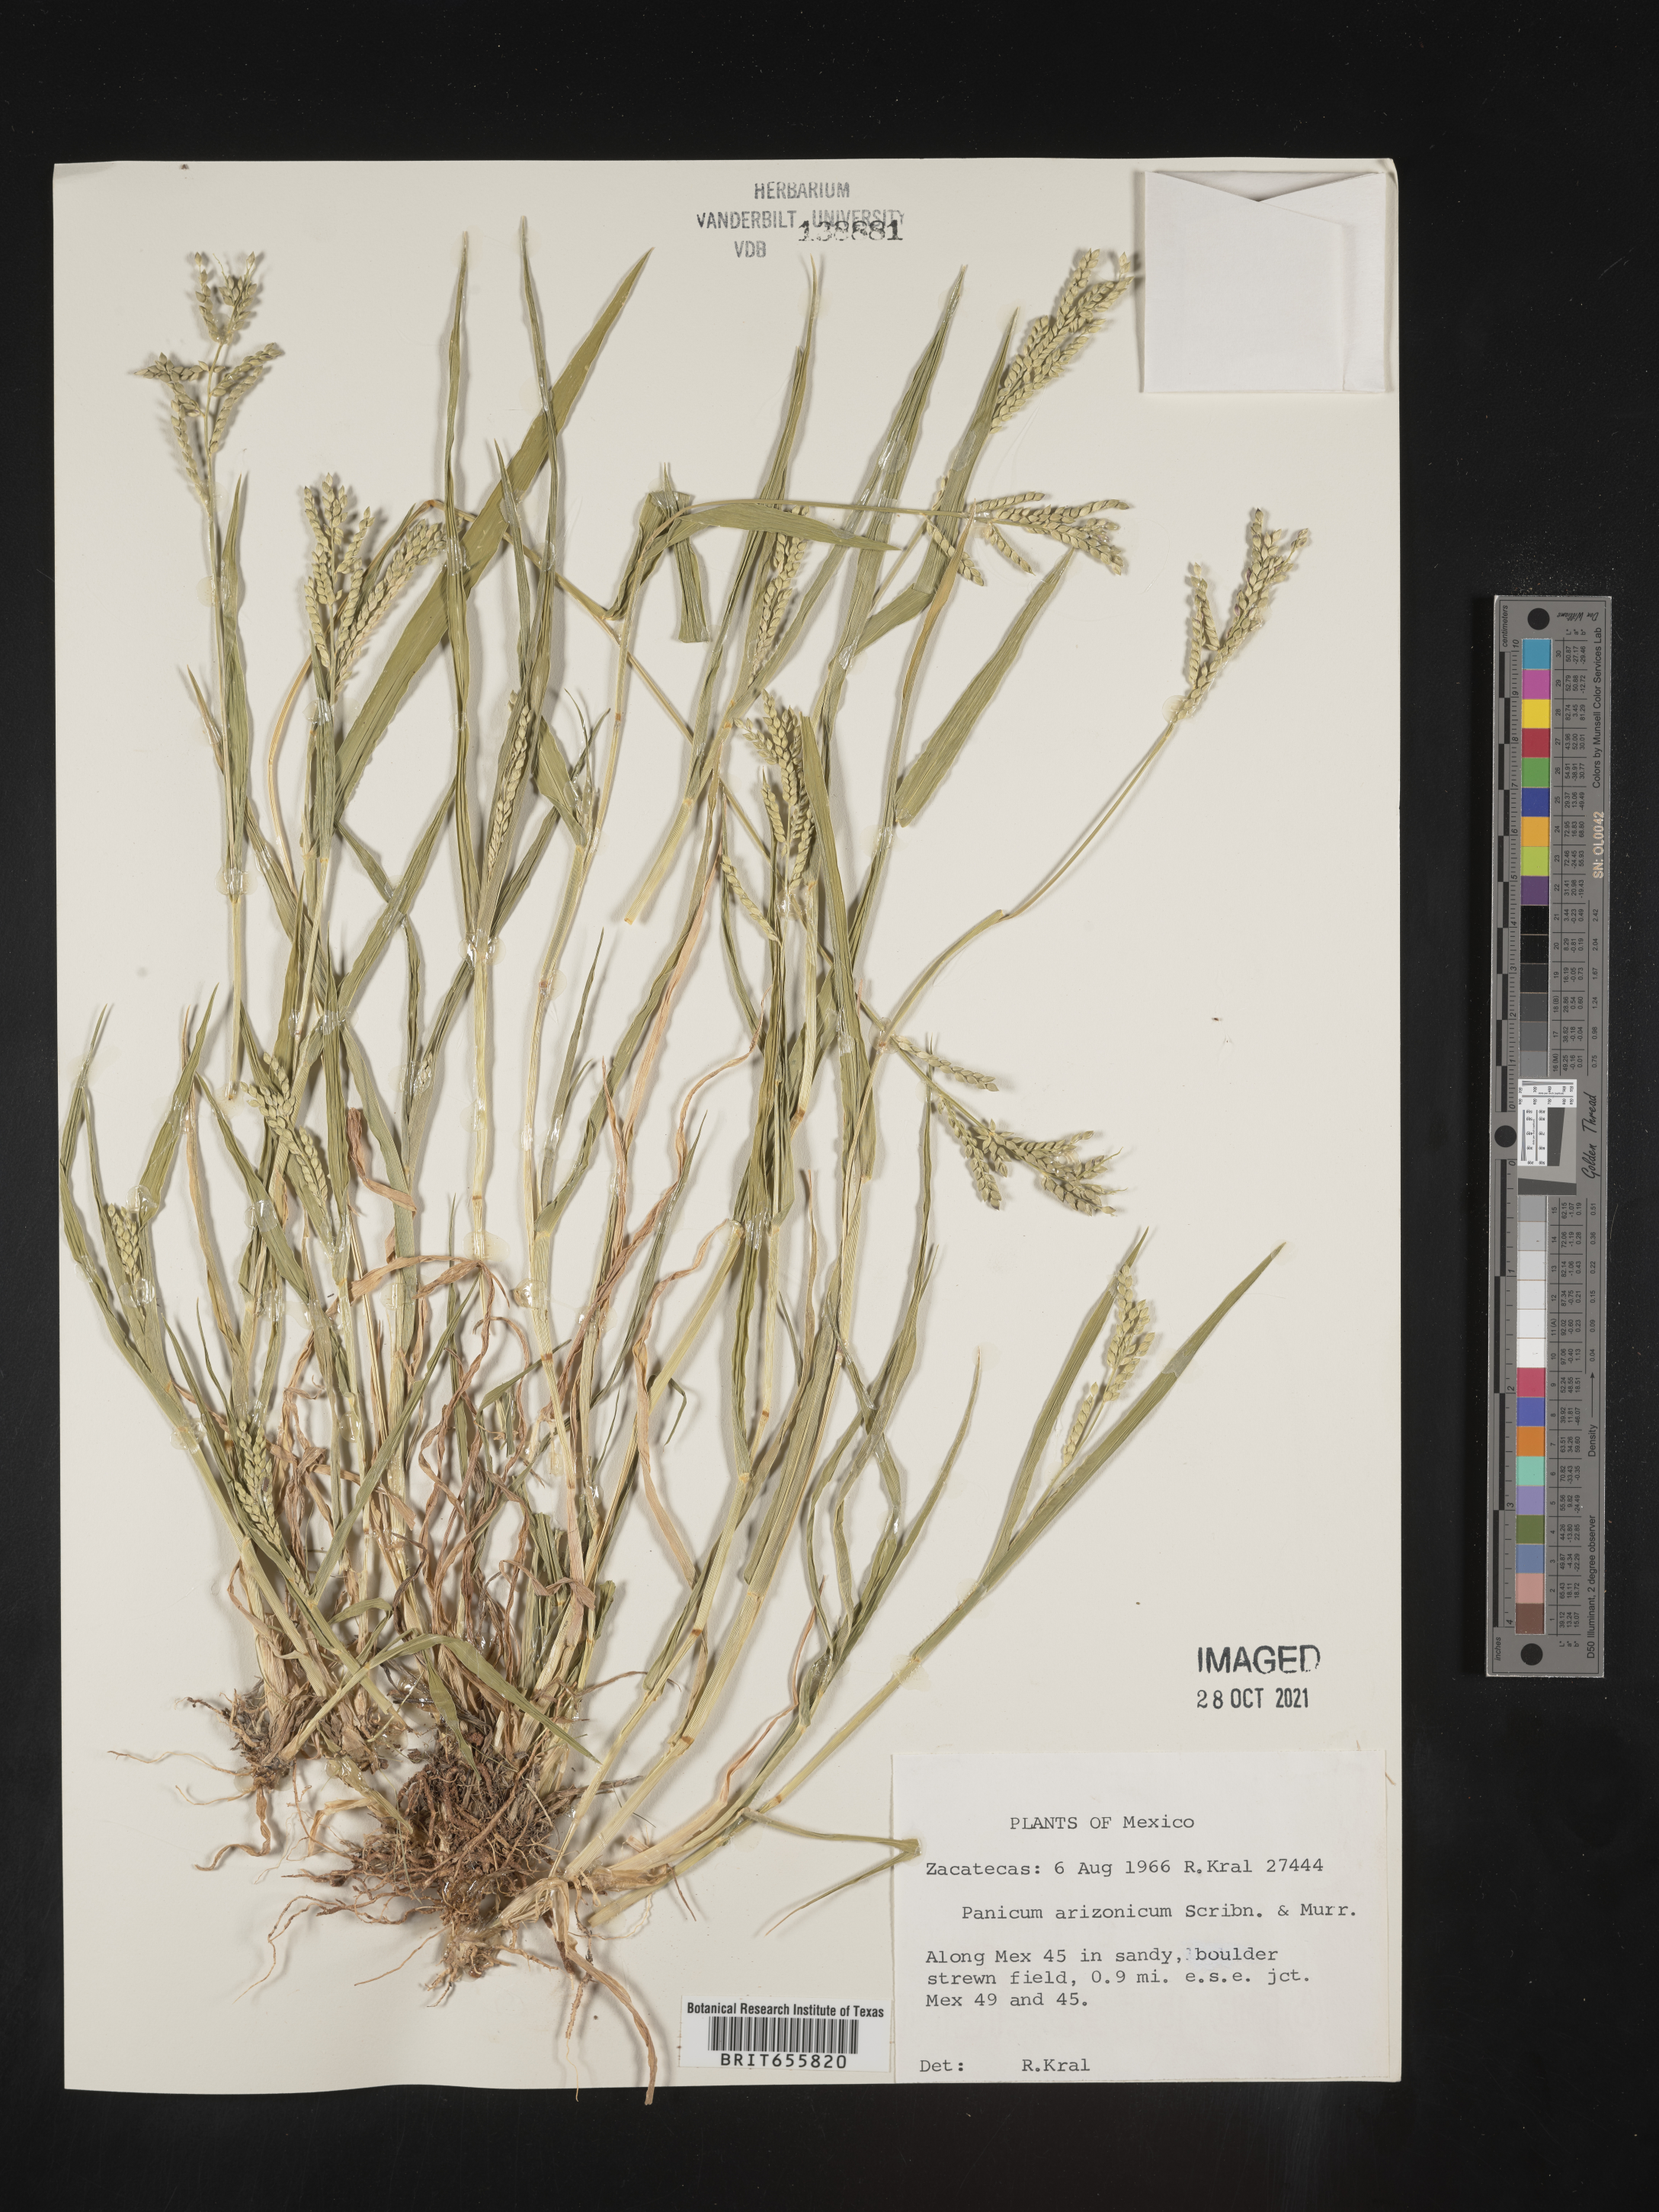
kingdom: Plantae
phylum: Tracheophyta
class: Liliopsida
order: Poales
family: Poaceae
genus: Panicum
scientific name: Panicum
